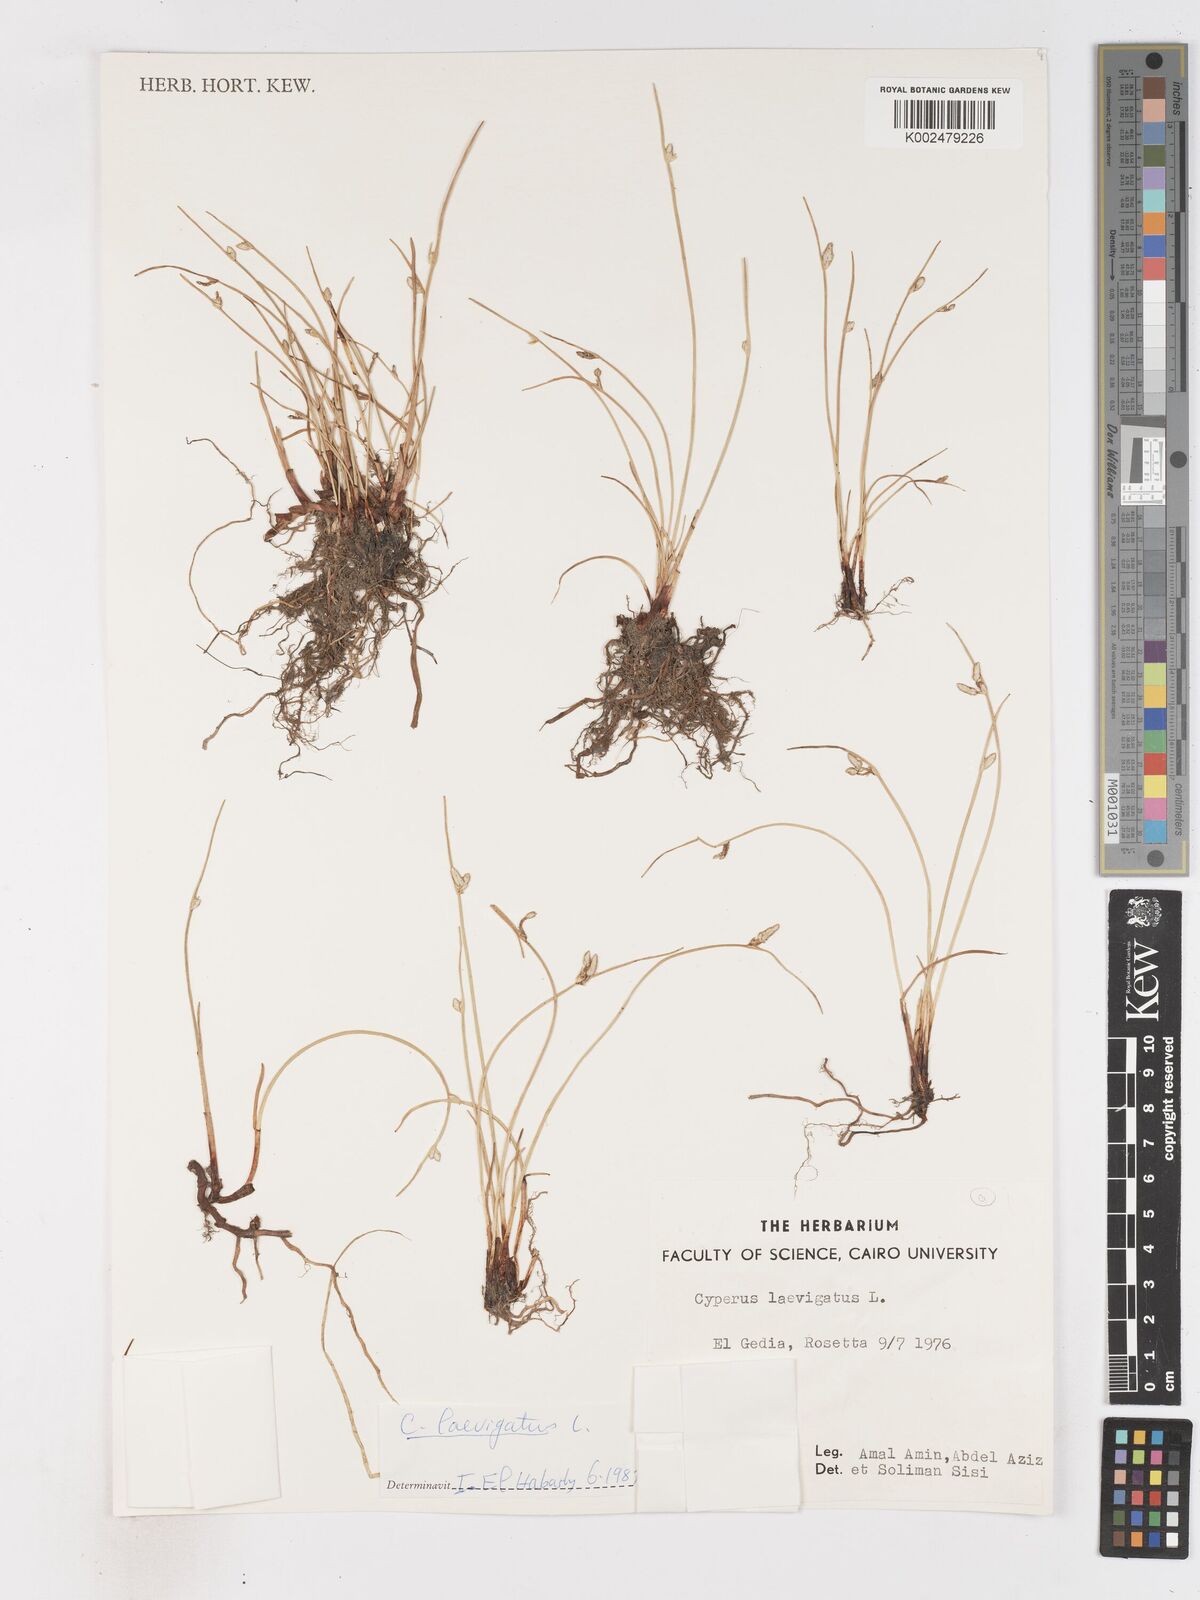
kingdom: Plantae
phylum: Tracheophyta
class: Liliopsida
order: Poales
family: Cyperaceae
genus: Cyperus
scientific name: Cyperus laevigatus
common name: Smooth flat sedge
